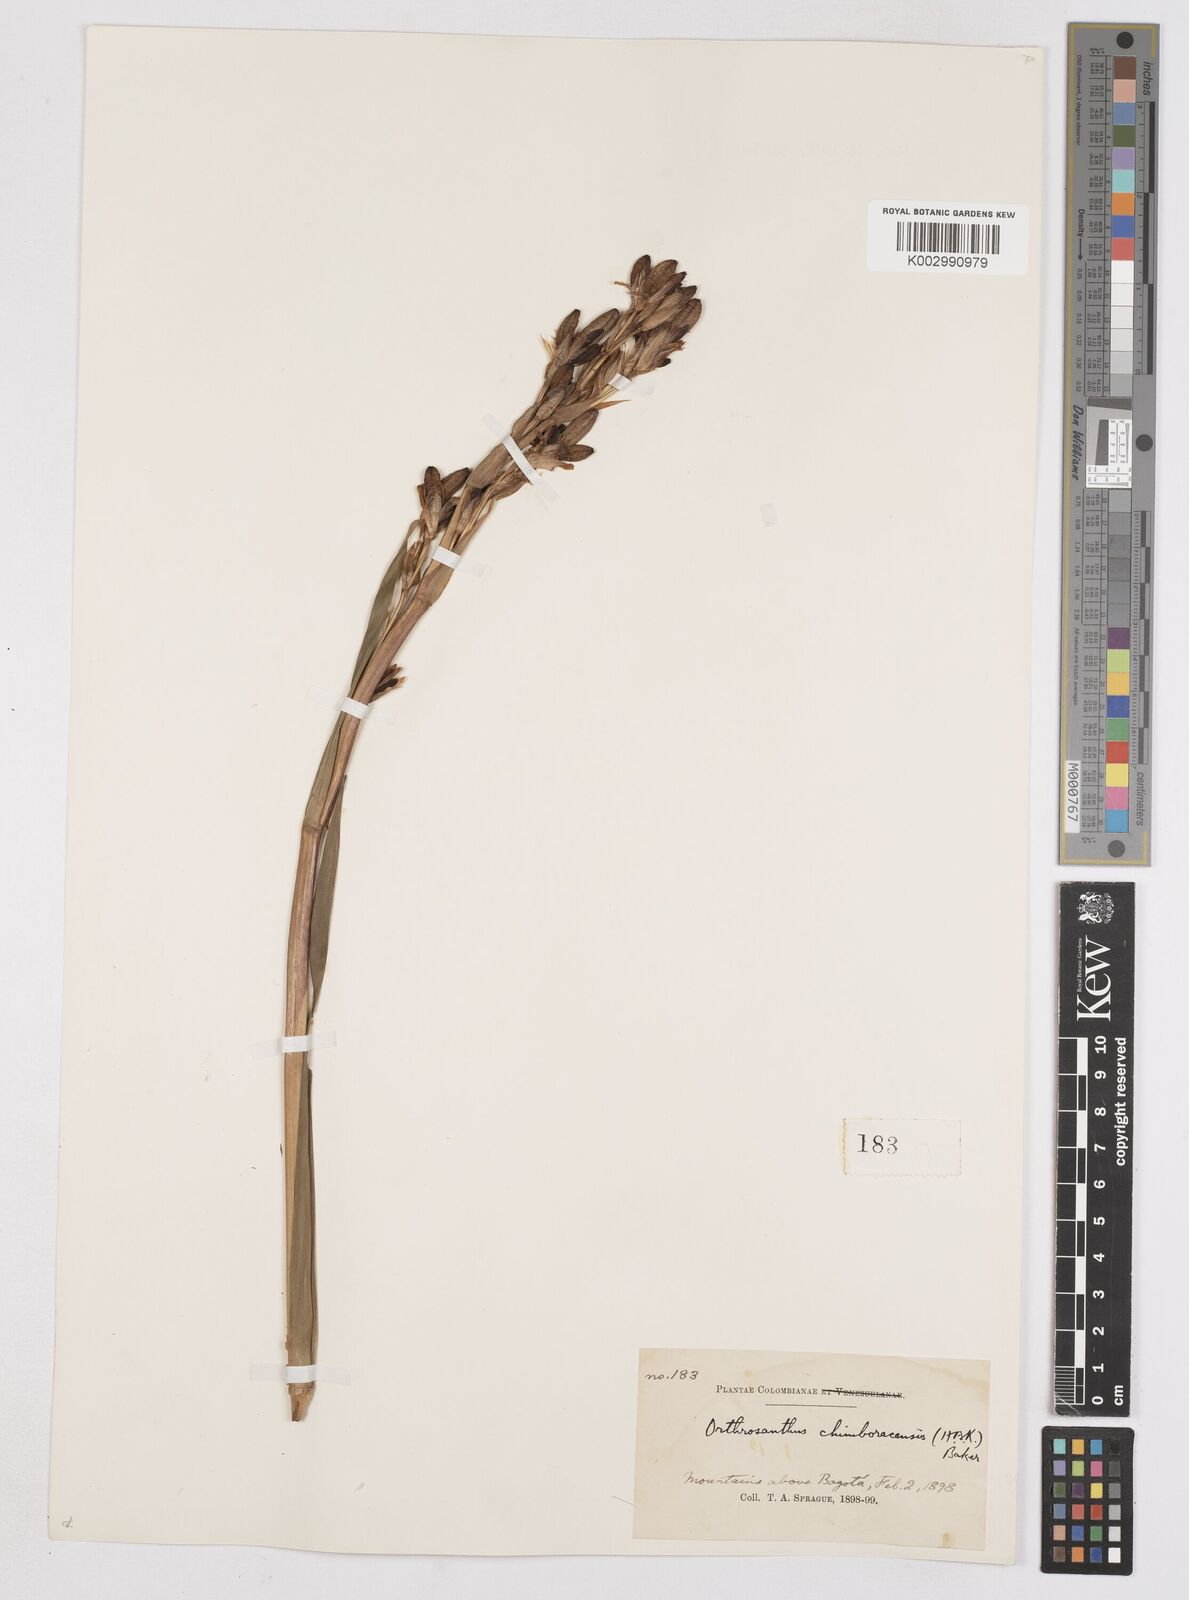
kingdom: Plantae
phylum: Tracheophyta
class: Liliopsida
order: Asparagales
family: Iridaceae
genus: Orthrosanthus
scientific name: Orthrosanthus chimboracensis
